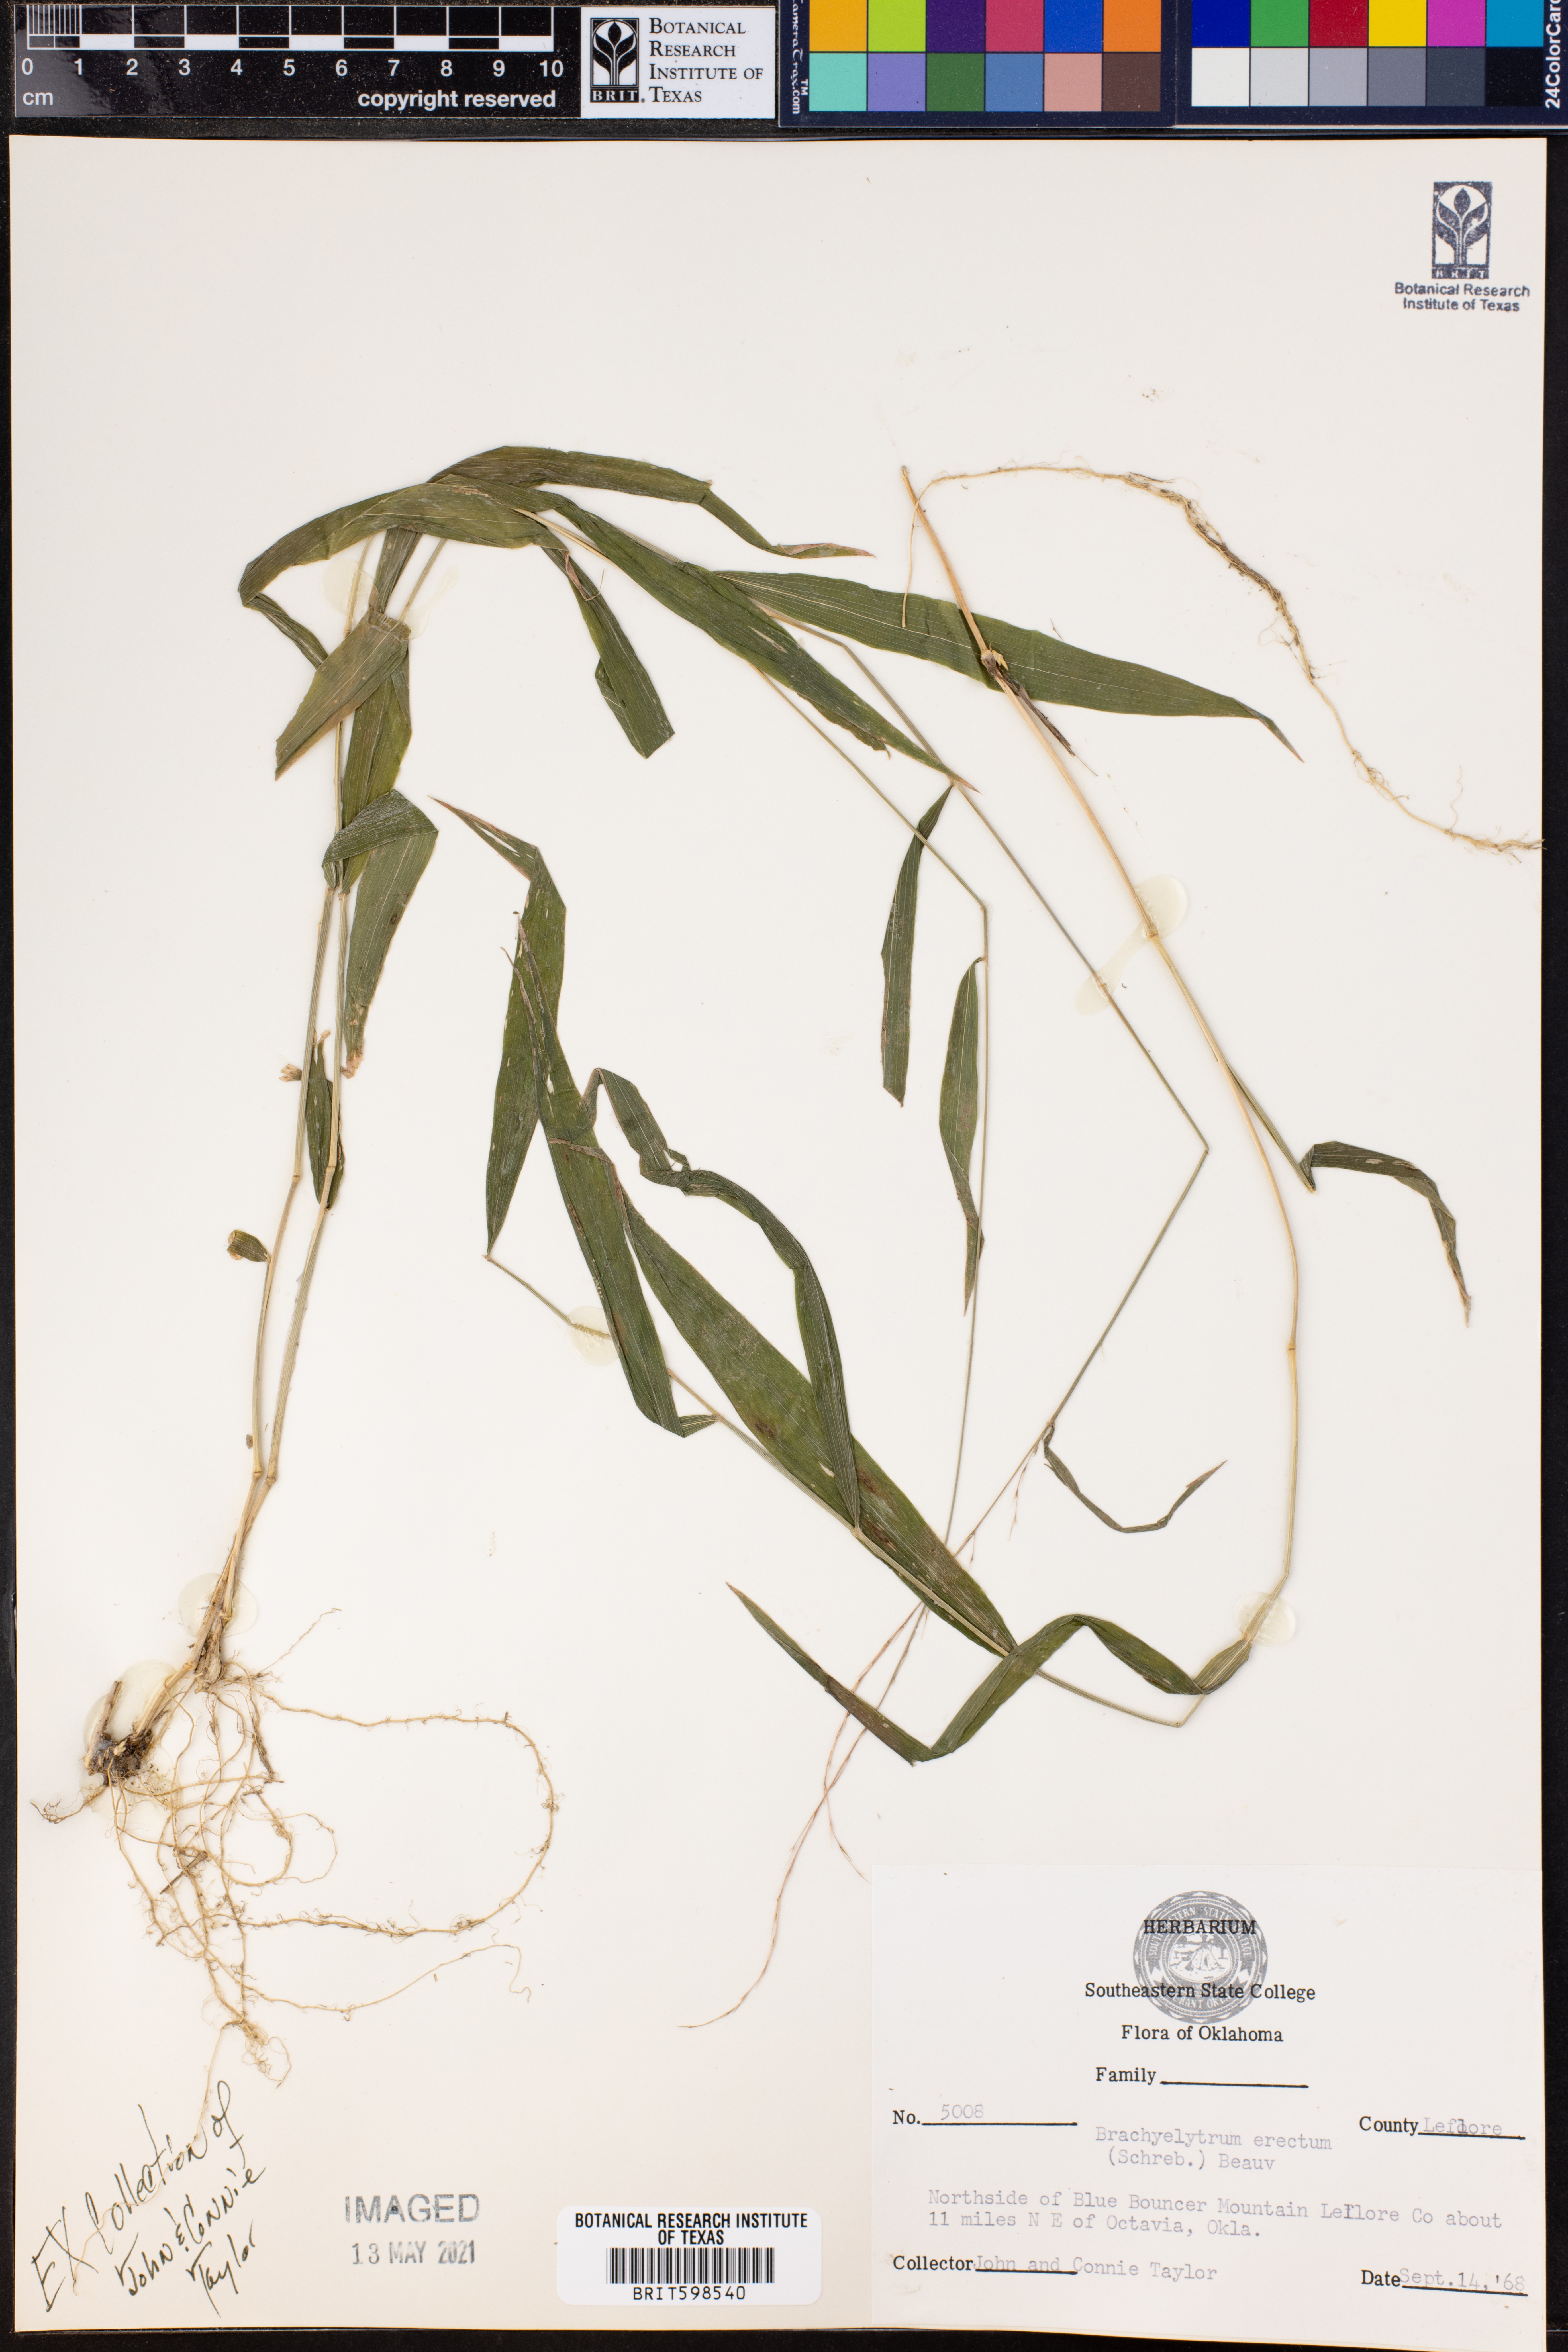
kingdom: Plantae
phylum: Tracheophyta
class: Liliopsida
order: Poales
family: Poaceae
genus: Brachyelytrum
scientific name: Brachyelytrum erectum
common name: Bearded shorthusk
